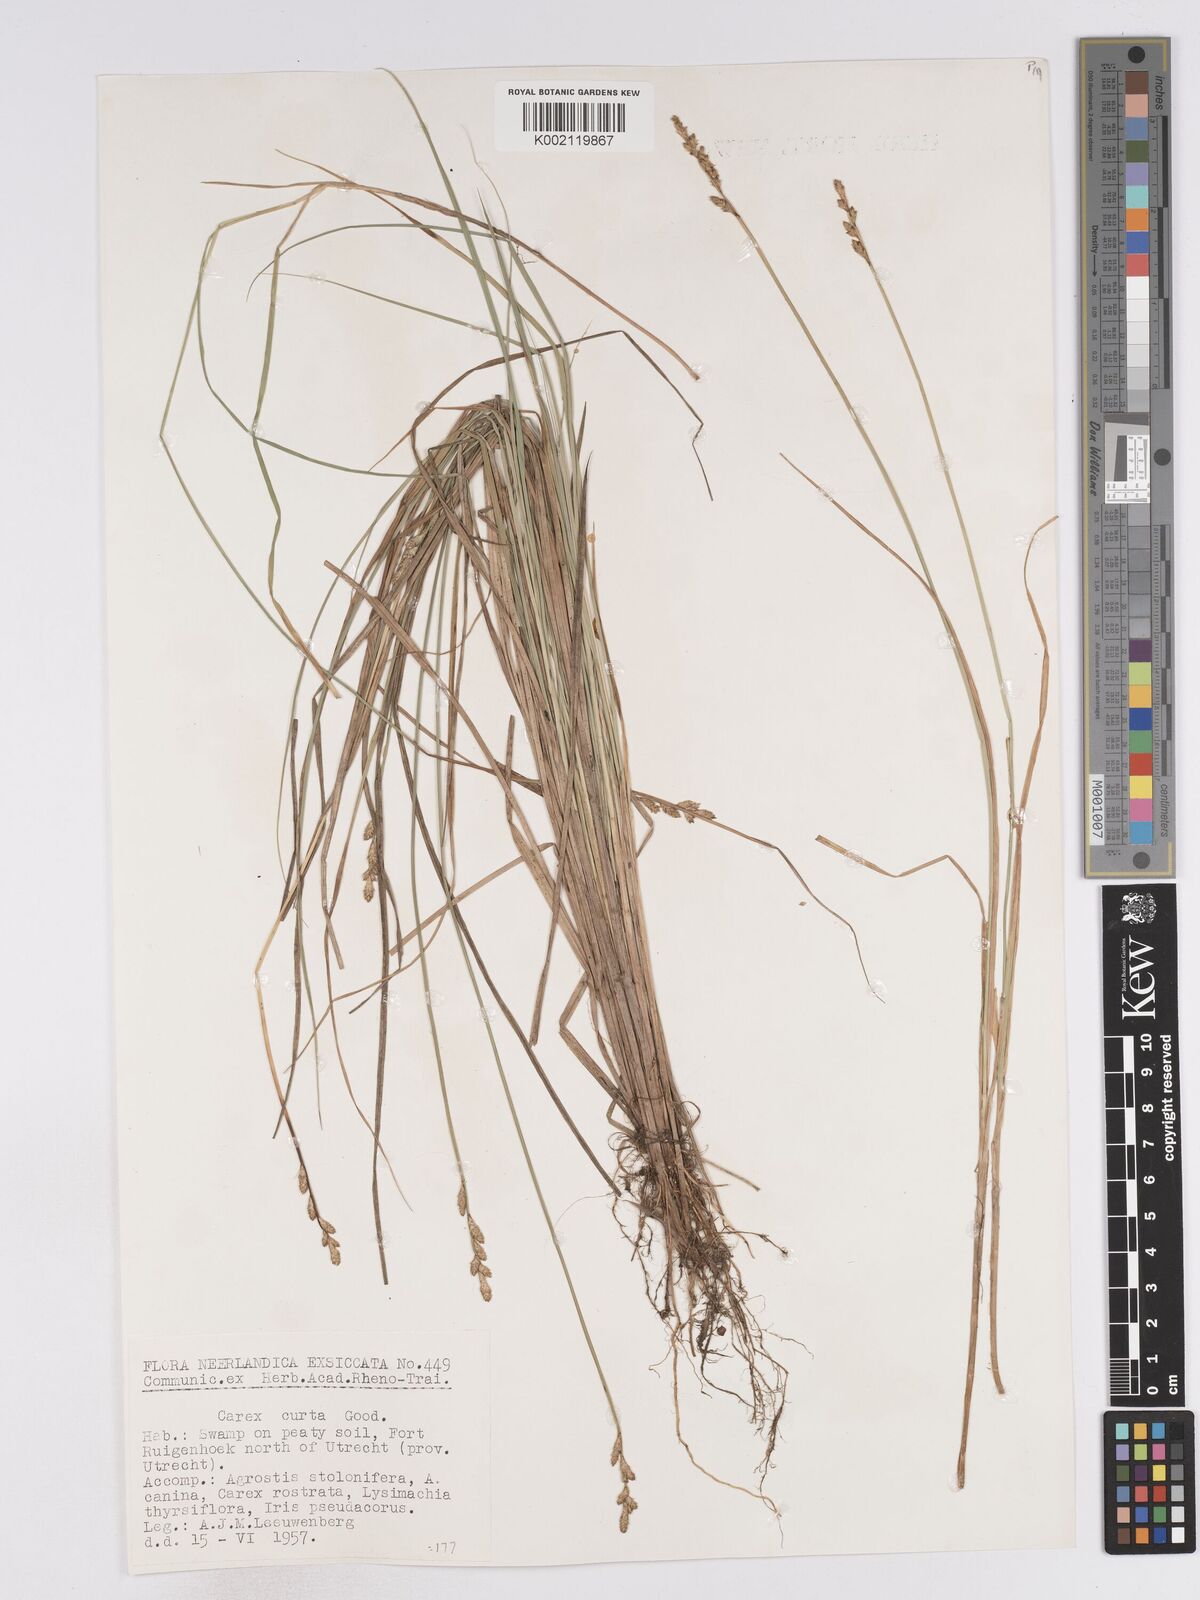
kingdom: Plantae
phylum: Tracheophyta
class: Liliopsida
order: Poales
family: Cyperaceae
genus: Carex
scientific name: Carex curta
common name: White sedge
